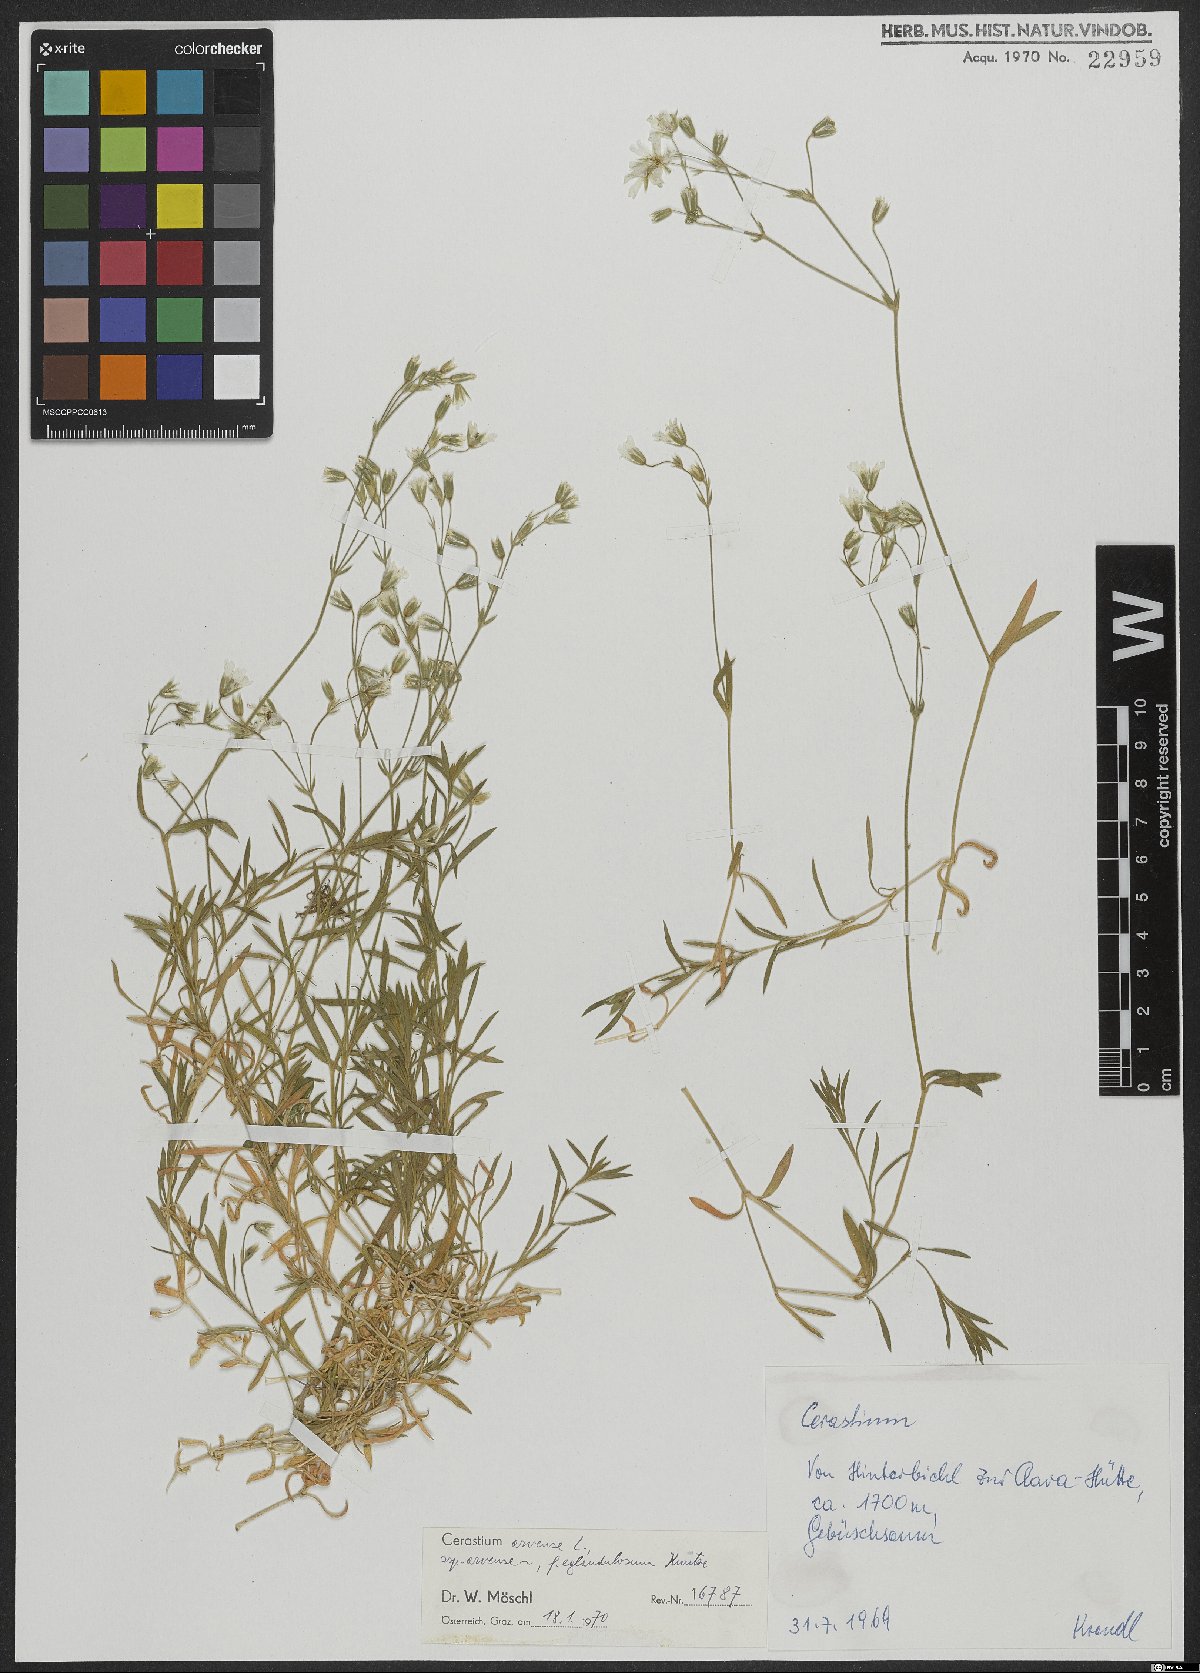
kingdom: Plantae
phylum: Tracheophyta
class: Magnoliopsida
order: Caryophyllales
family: Caryophyllaceae
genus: Cerastium
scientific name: Cerastium arvense
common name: Field mouse-ear
